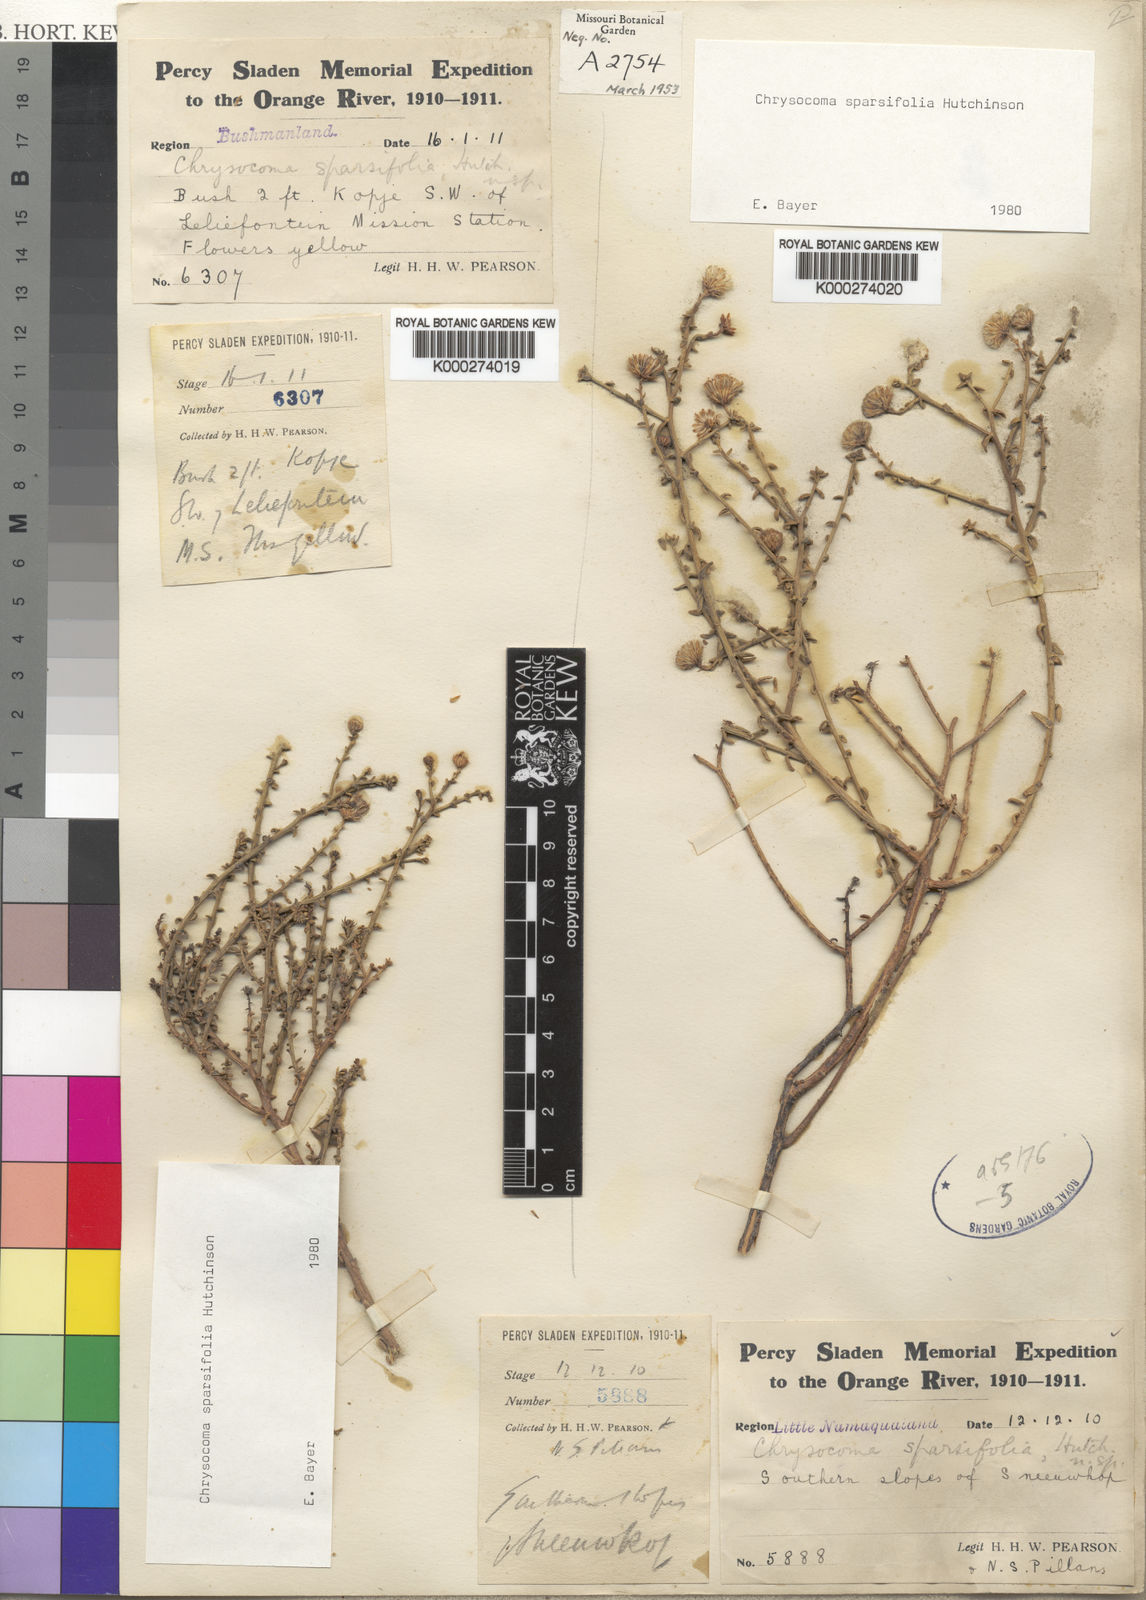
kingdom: Plantae
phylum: Tracheophyta
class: Magnoliopsida
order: Asterales
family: Asteraceae
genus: Chrysocoma
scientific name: Chrysocoma sparsifolia
